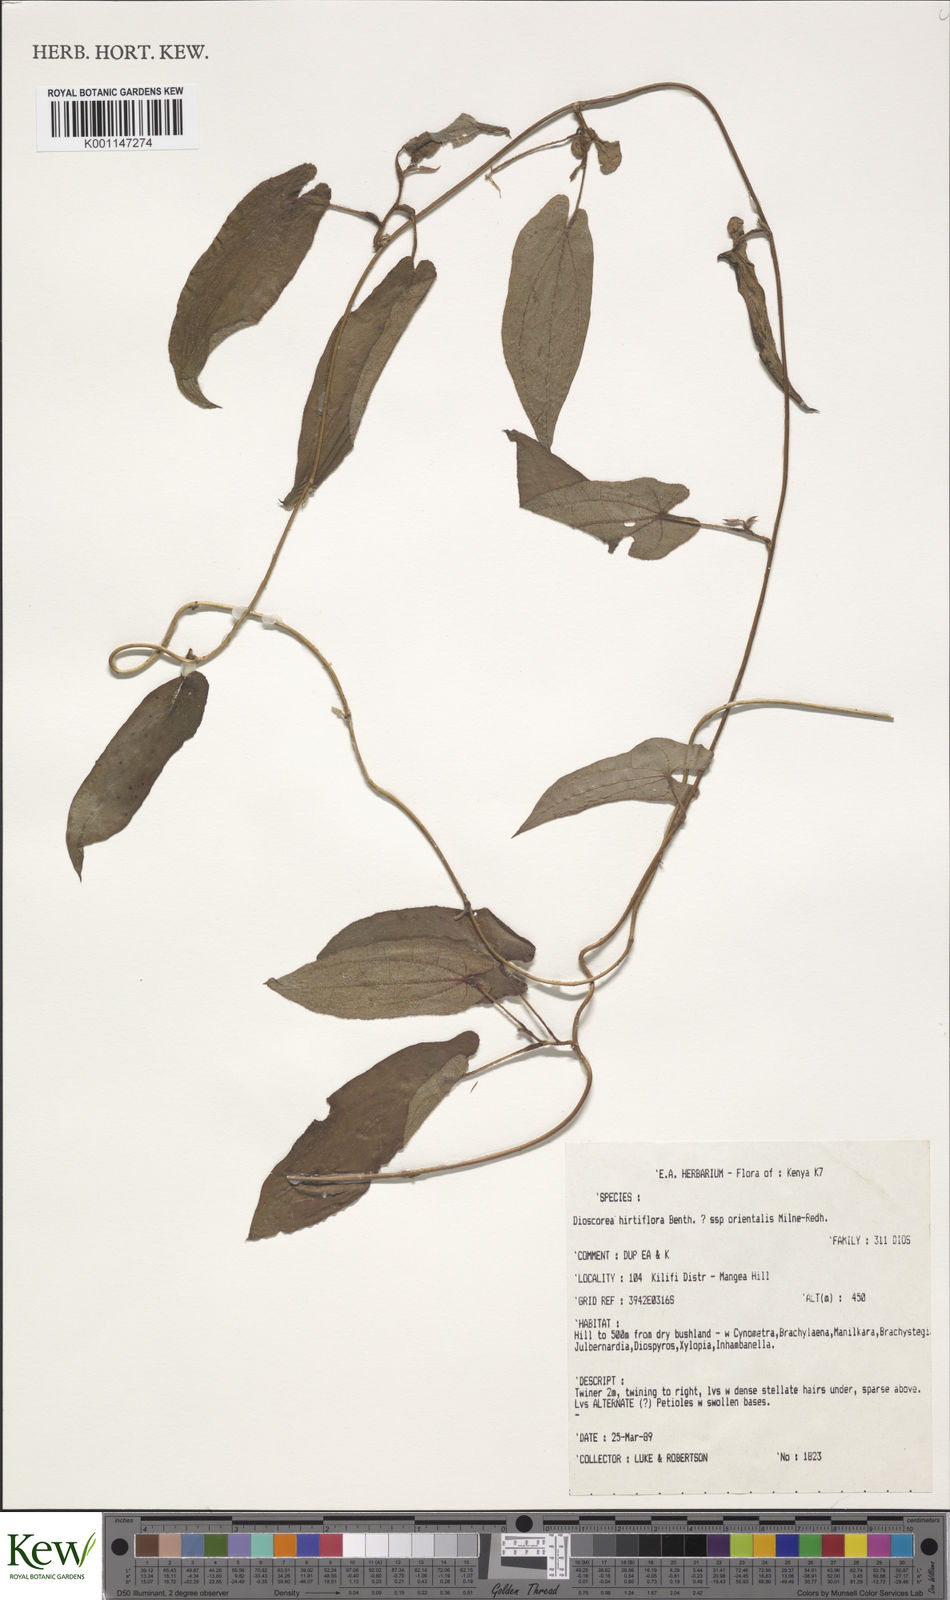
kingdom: Plantae
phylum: Tracheophyta
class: Liliopsida
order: Dioscoreales
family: Dioscoreaceae
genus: Dioscorea
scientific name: Dioscorea hirtiflora
